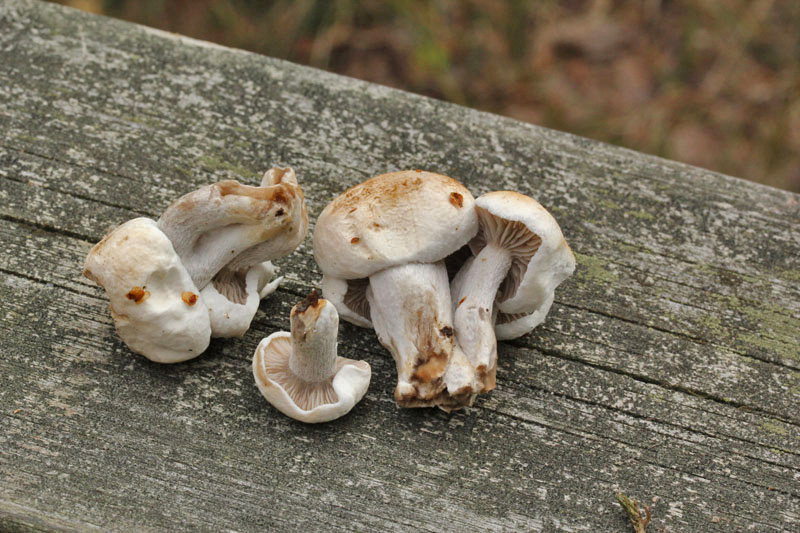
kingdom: Fungi
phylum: Basidiomycota
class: Agaricomycetes
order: Agaricales
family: Lyophyllaceae
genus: Asterophora
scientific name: Asterophora lycoperdoides
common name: brunpudret snyltehat
